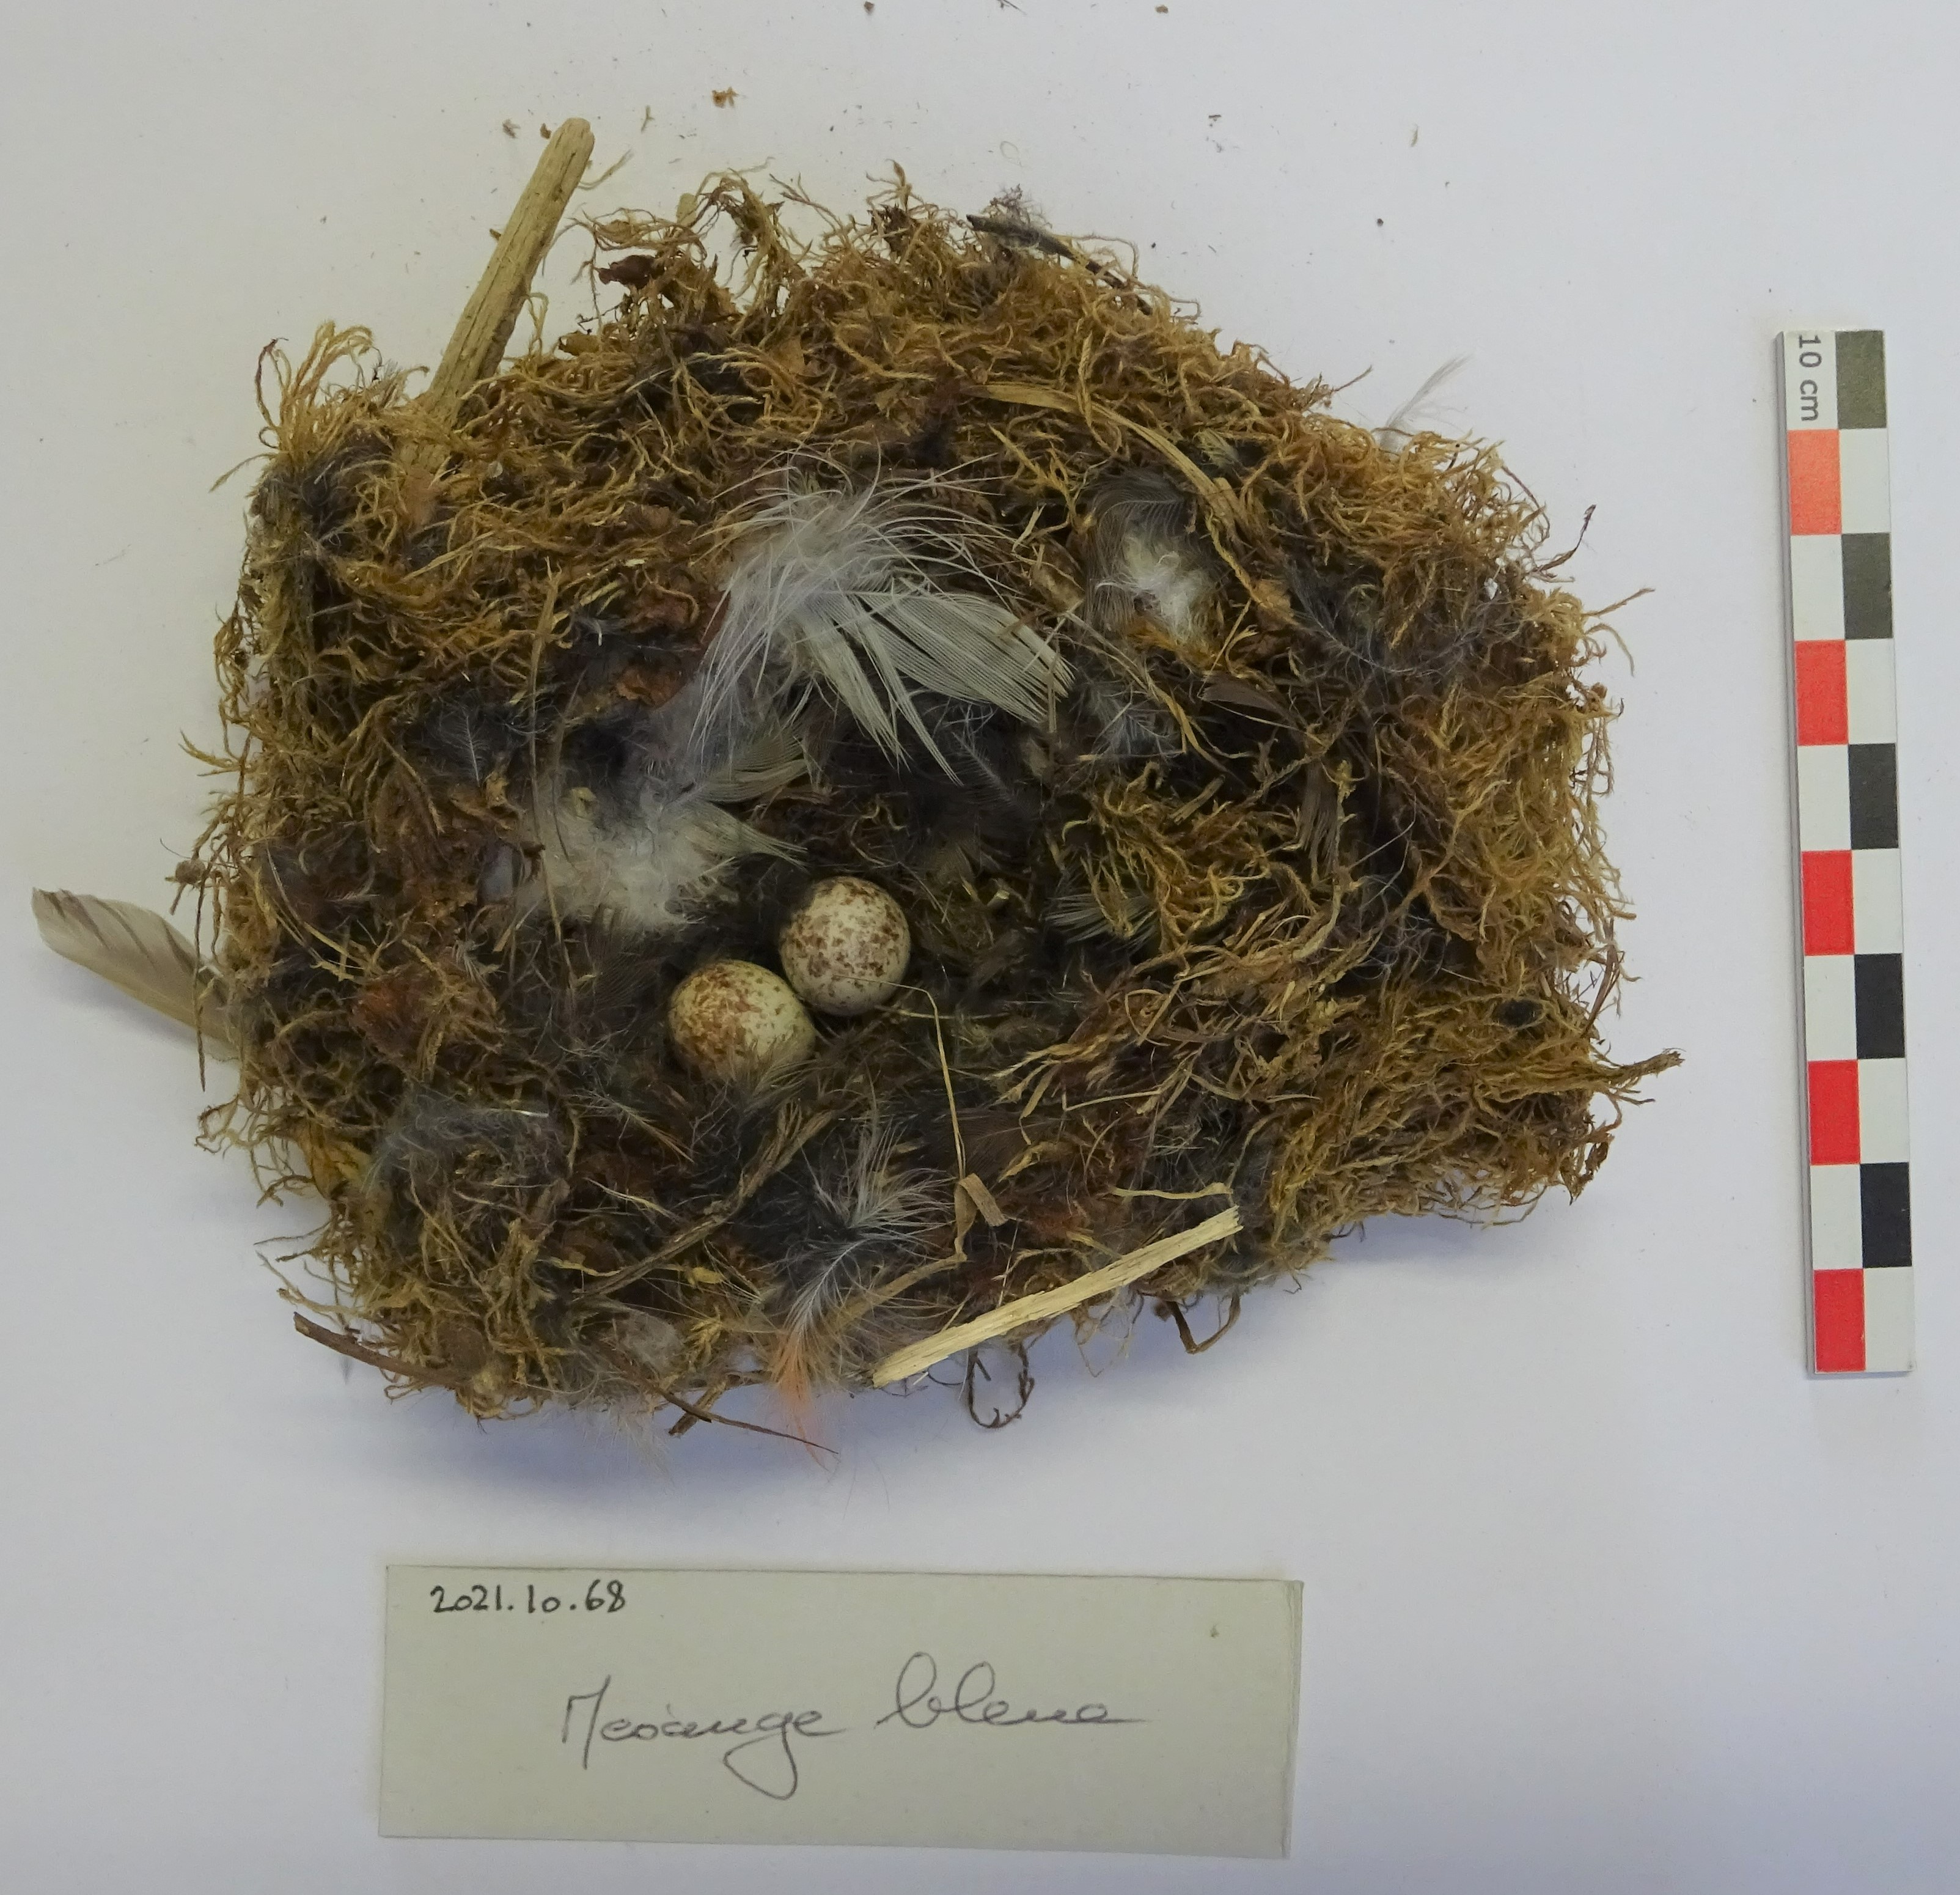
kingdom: Animalia
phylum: Chordata
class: Aves
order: Passeriformes
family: Paridae
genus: Cyanistes
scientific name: Cyanistes caeruleus
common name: Eurasian blue tit
